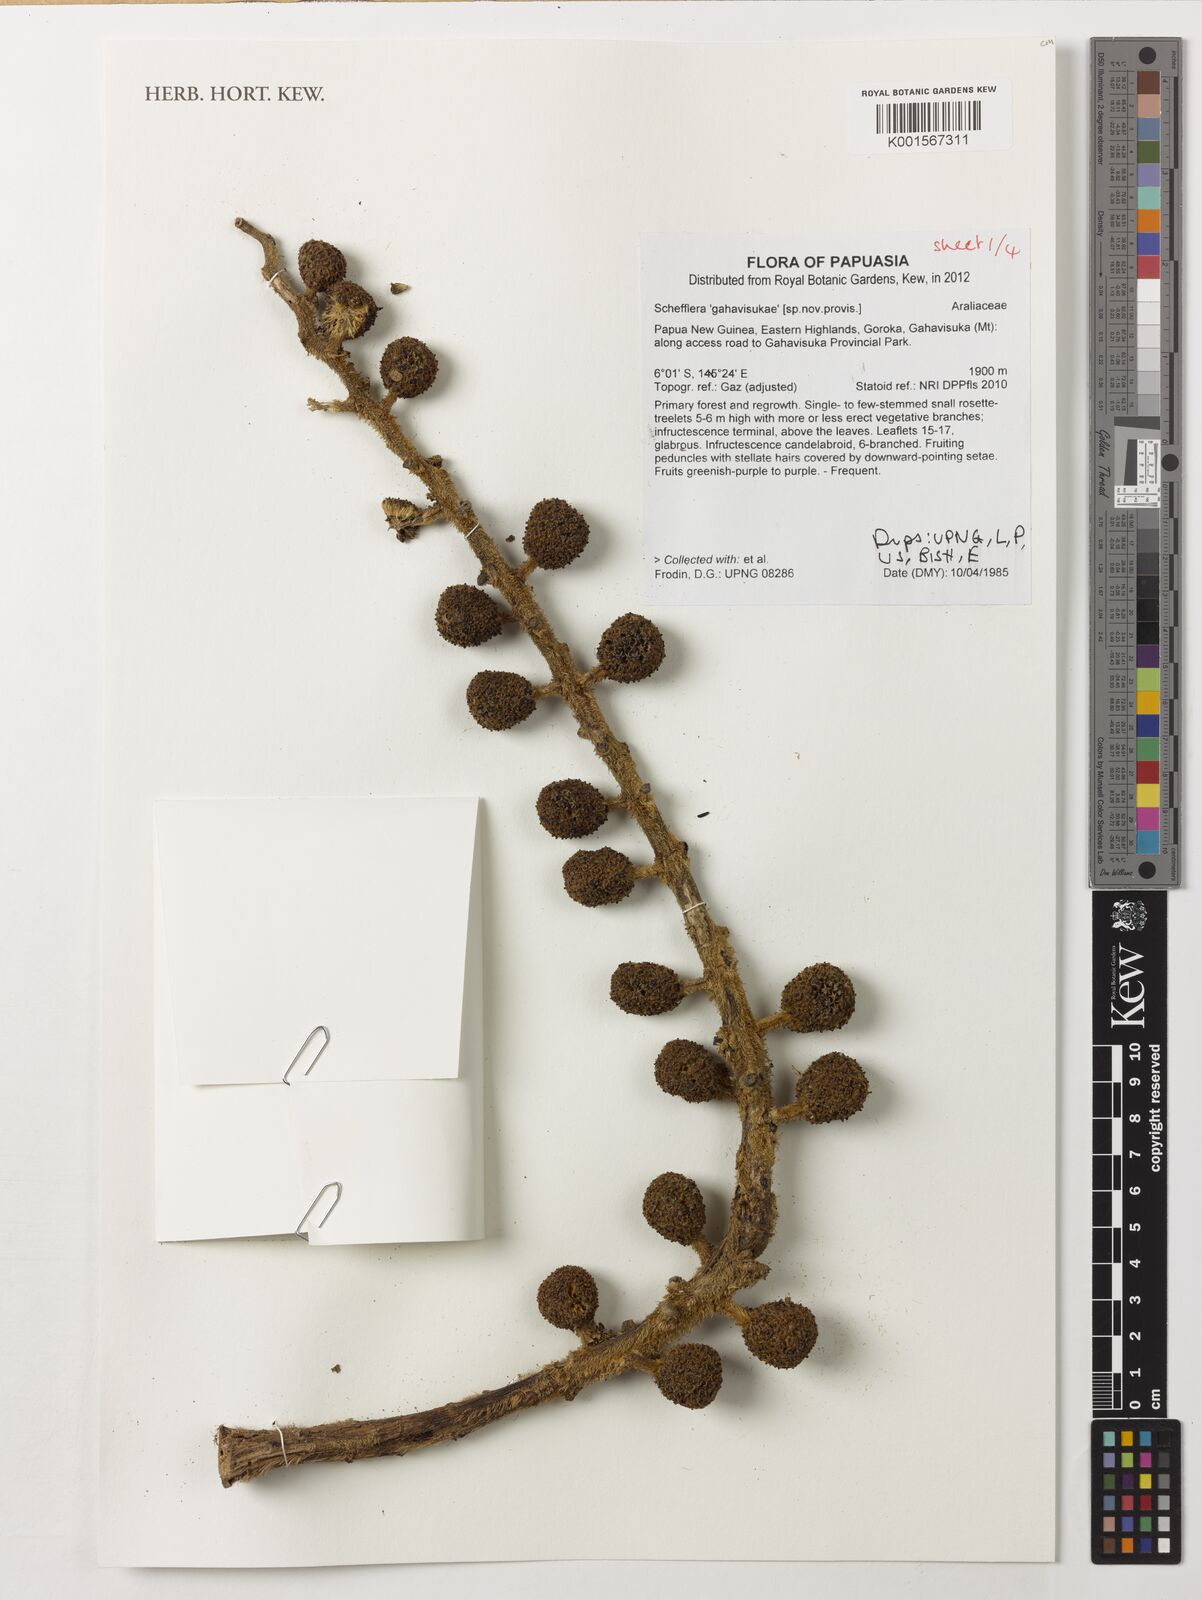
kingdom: Plantae
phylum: Tracheophyta
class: Magnoliopsida
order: Apiales
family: Araliaceae
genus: Schefflera
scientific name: Schefflera
